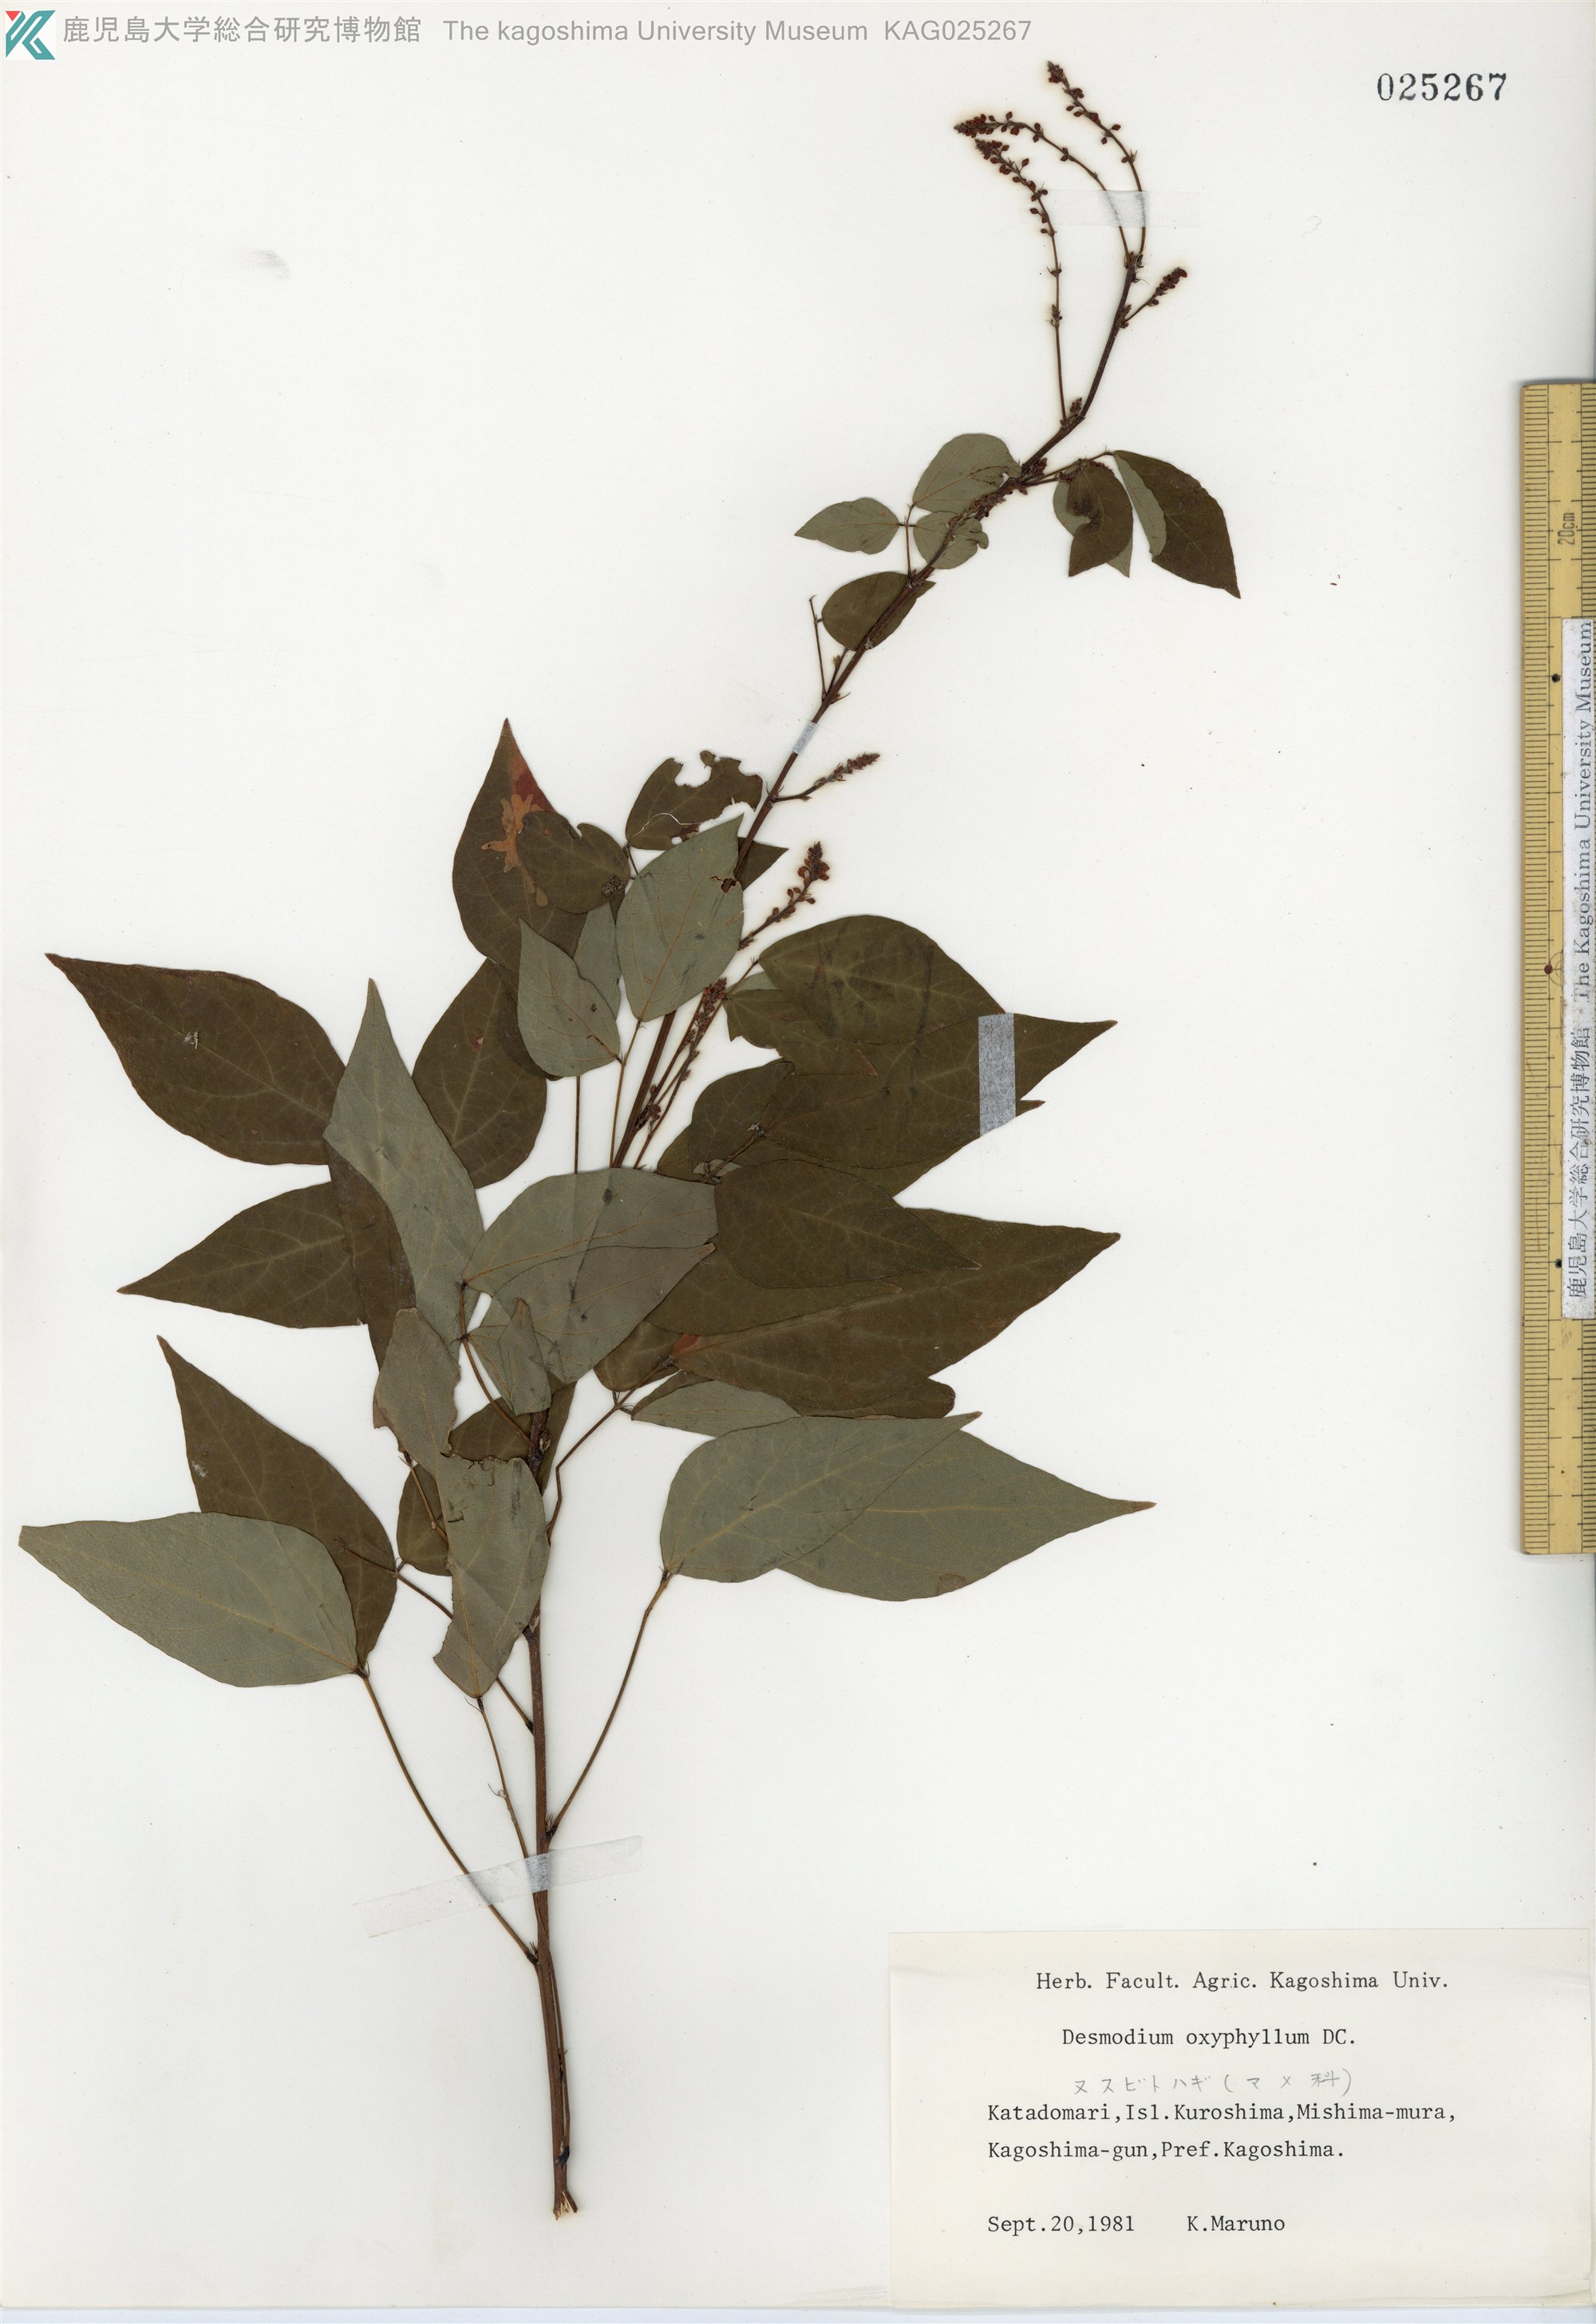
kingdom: Plantae
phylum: Tracheophyta
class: Magnoliopsida
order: Fabales
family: Fabaceae
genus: Hylodesmum
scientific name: Hylodesmum podocarpum
